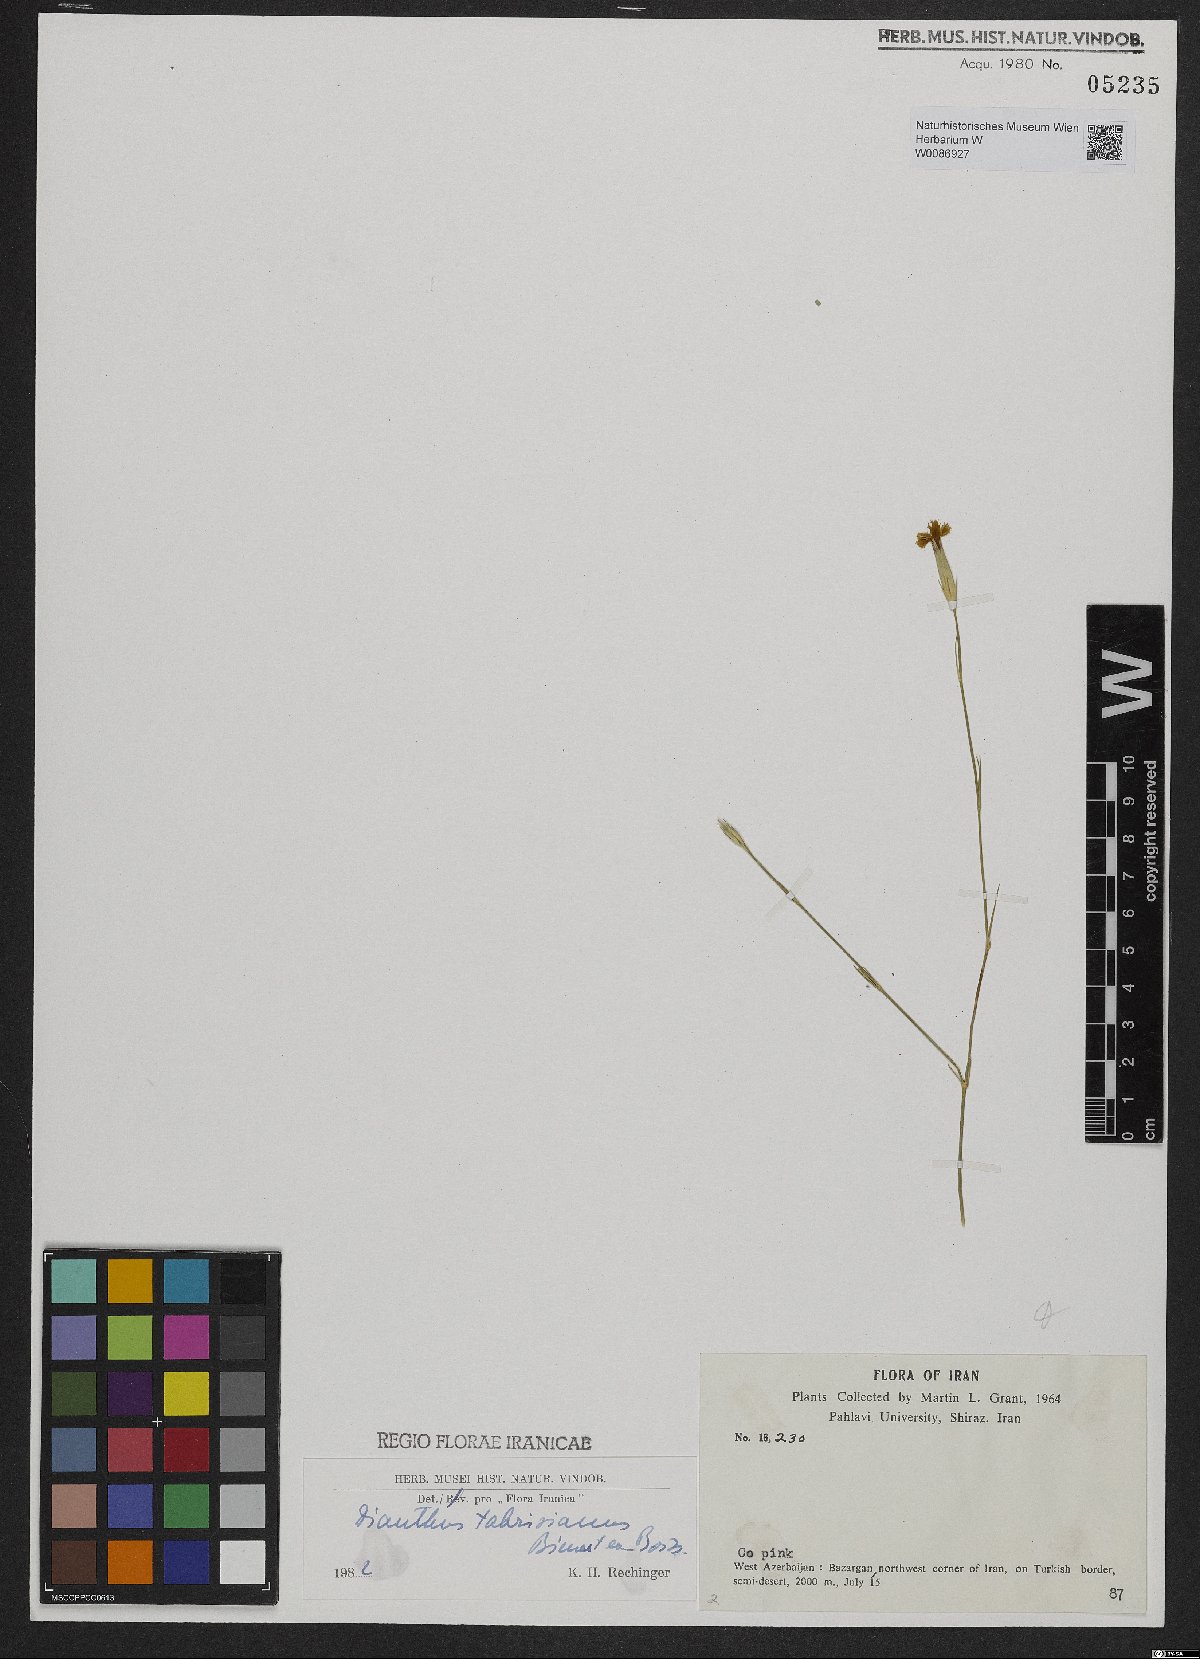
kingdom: Plantae
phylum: Tracheophyta
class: Magnoliopsida
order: Caryophyllales
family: Caryophyllaceae
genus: Dianthus
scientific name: Dianthus tabrisianus
